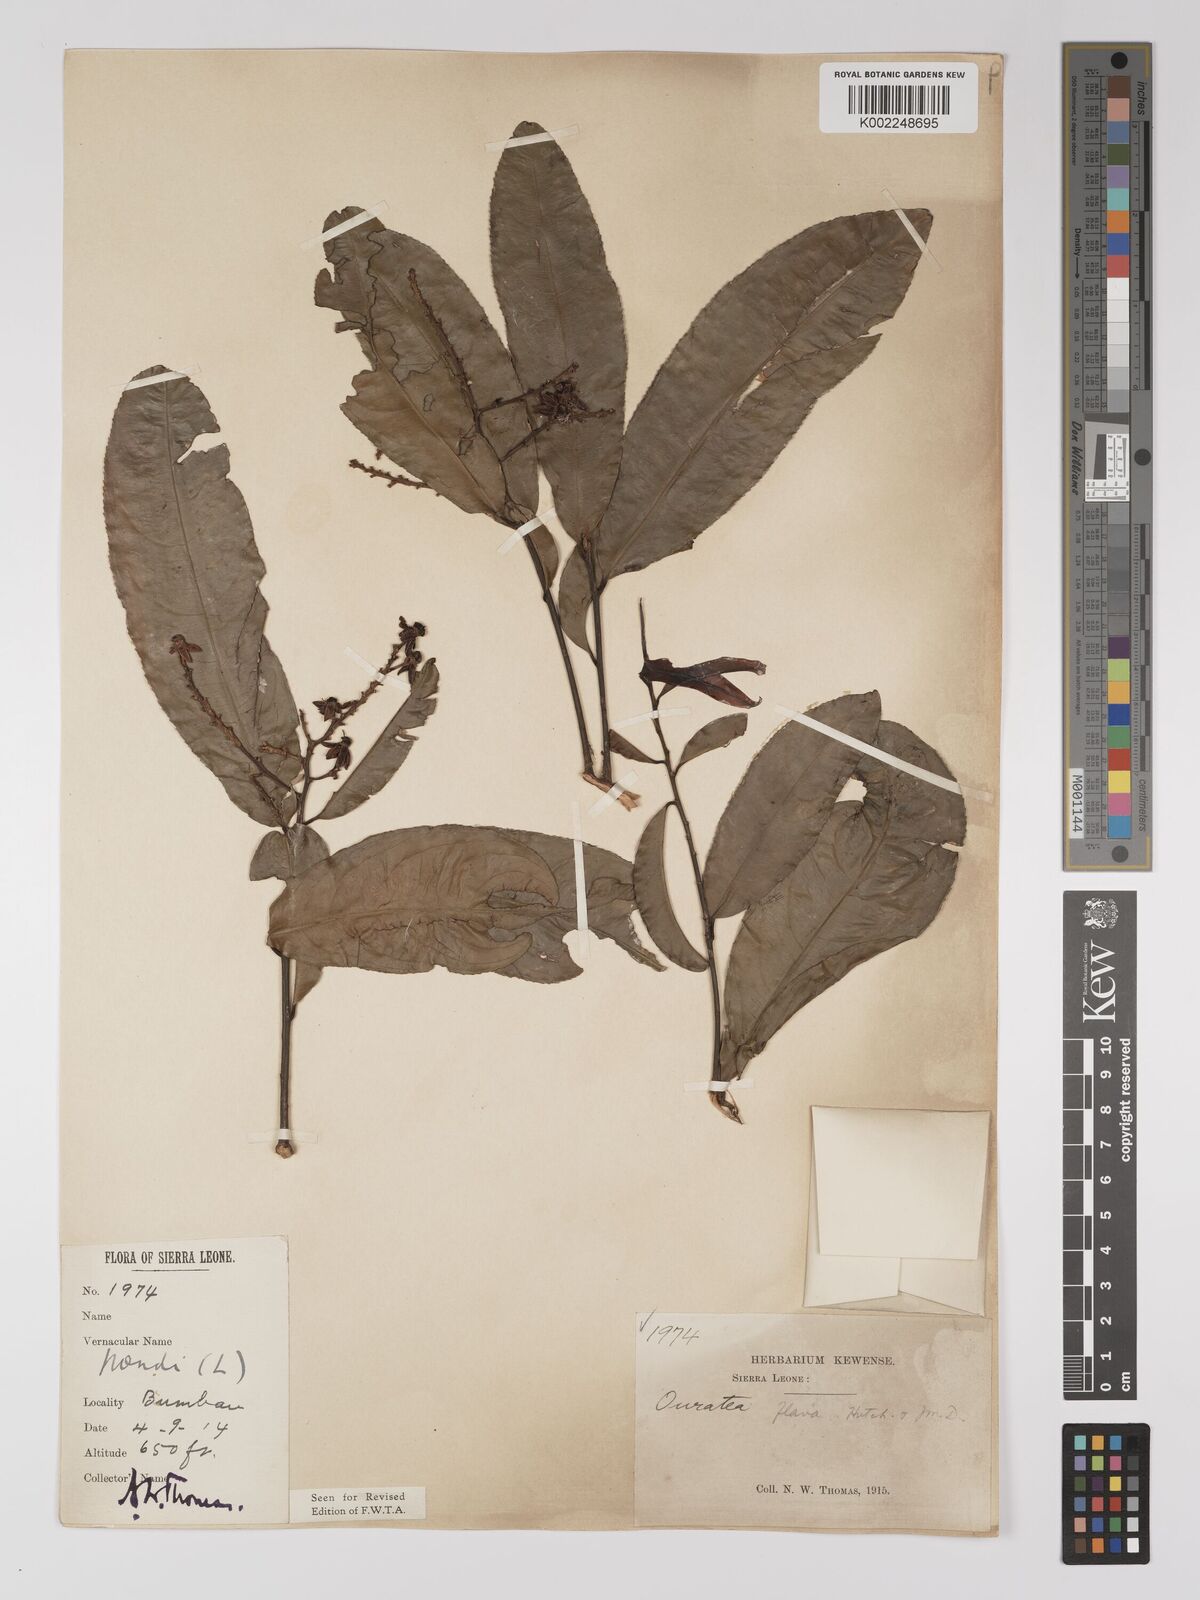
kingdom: Plantae
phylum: Tracheophyta
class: Magnoliopsida
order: Malpighiales
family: Ochnaceae
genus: Campylospermum
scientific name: Campylospermum flavum
